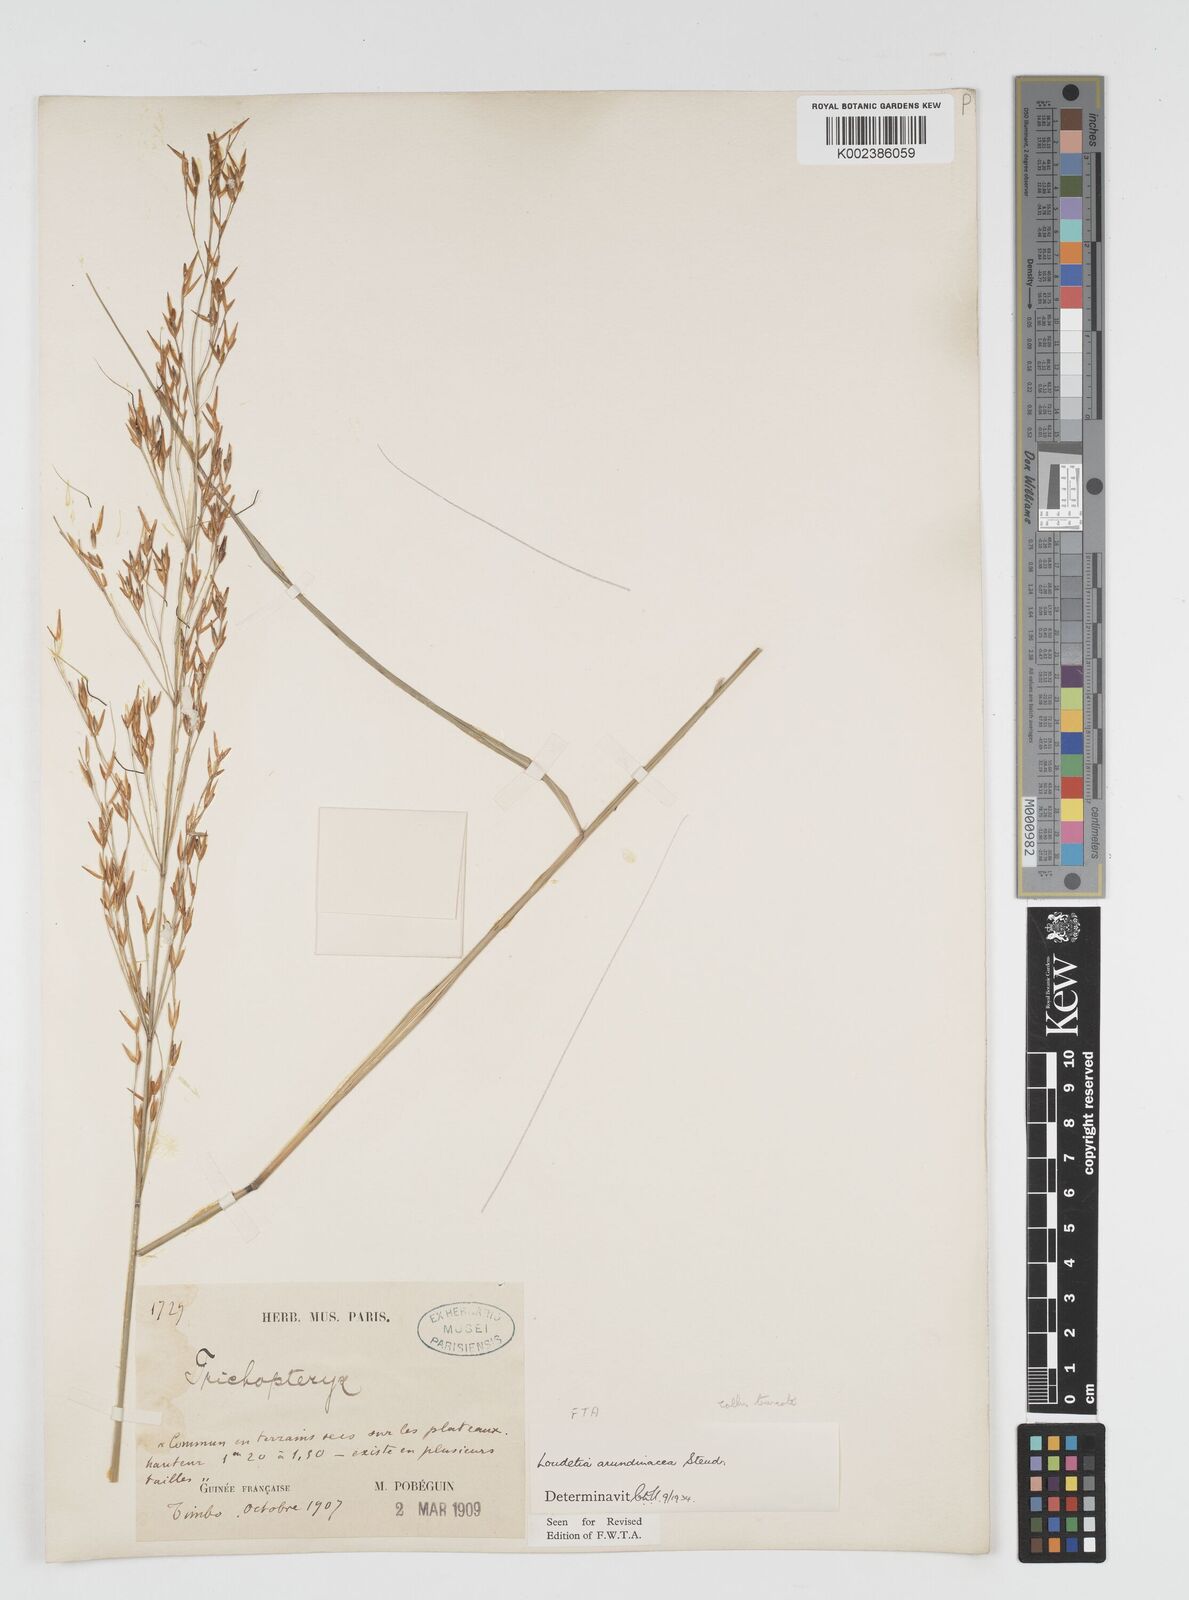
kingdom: Plantae
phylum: Tracheophyta
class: Liliopsida
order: Poales
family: Poaceae
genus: Loudetia
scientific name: Loudetia arundinacea
